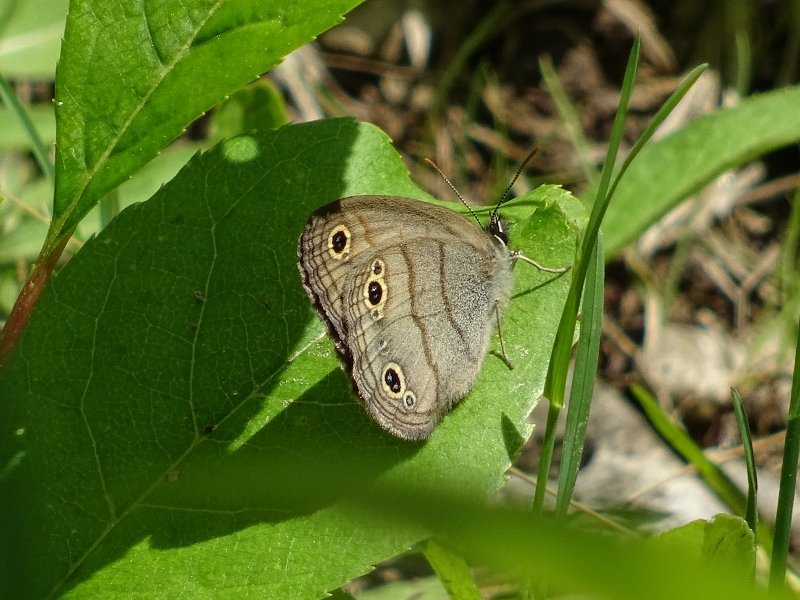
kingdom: Animalia
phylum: Arthropoda
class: Insecta
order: Lepidoptera
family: Nymphalidae
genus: Euptychia
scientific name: Euptychia cymela
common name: Little Wood Satyr
